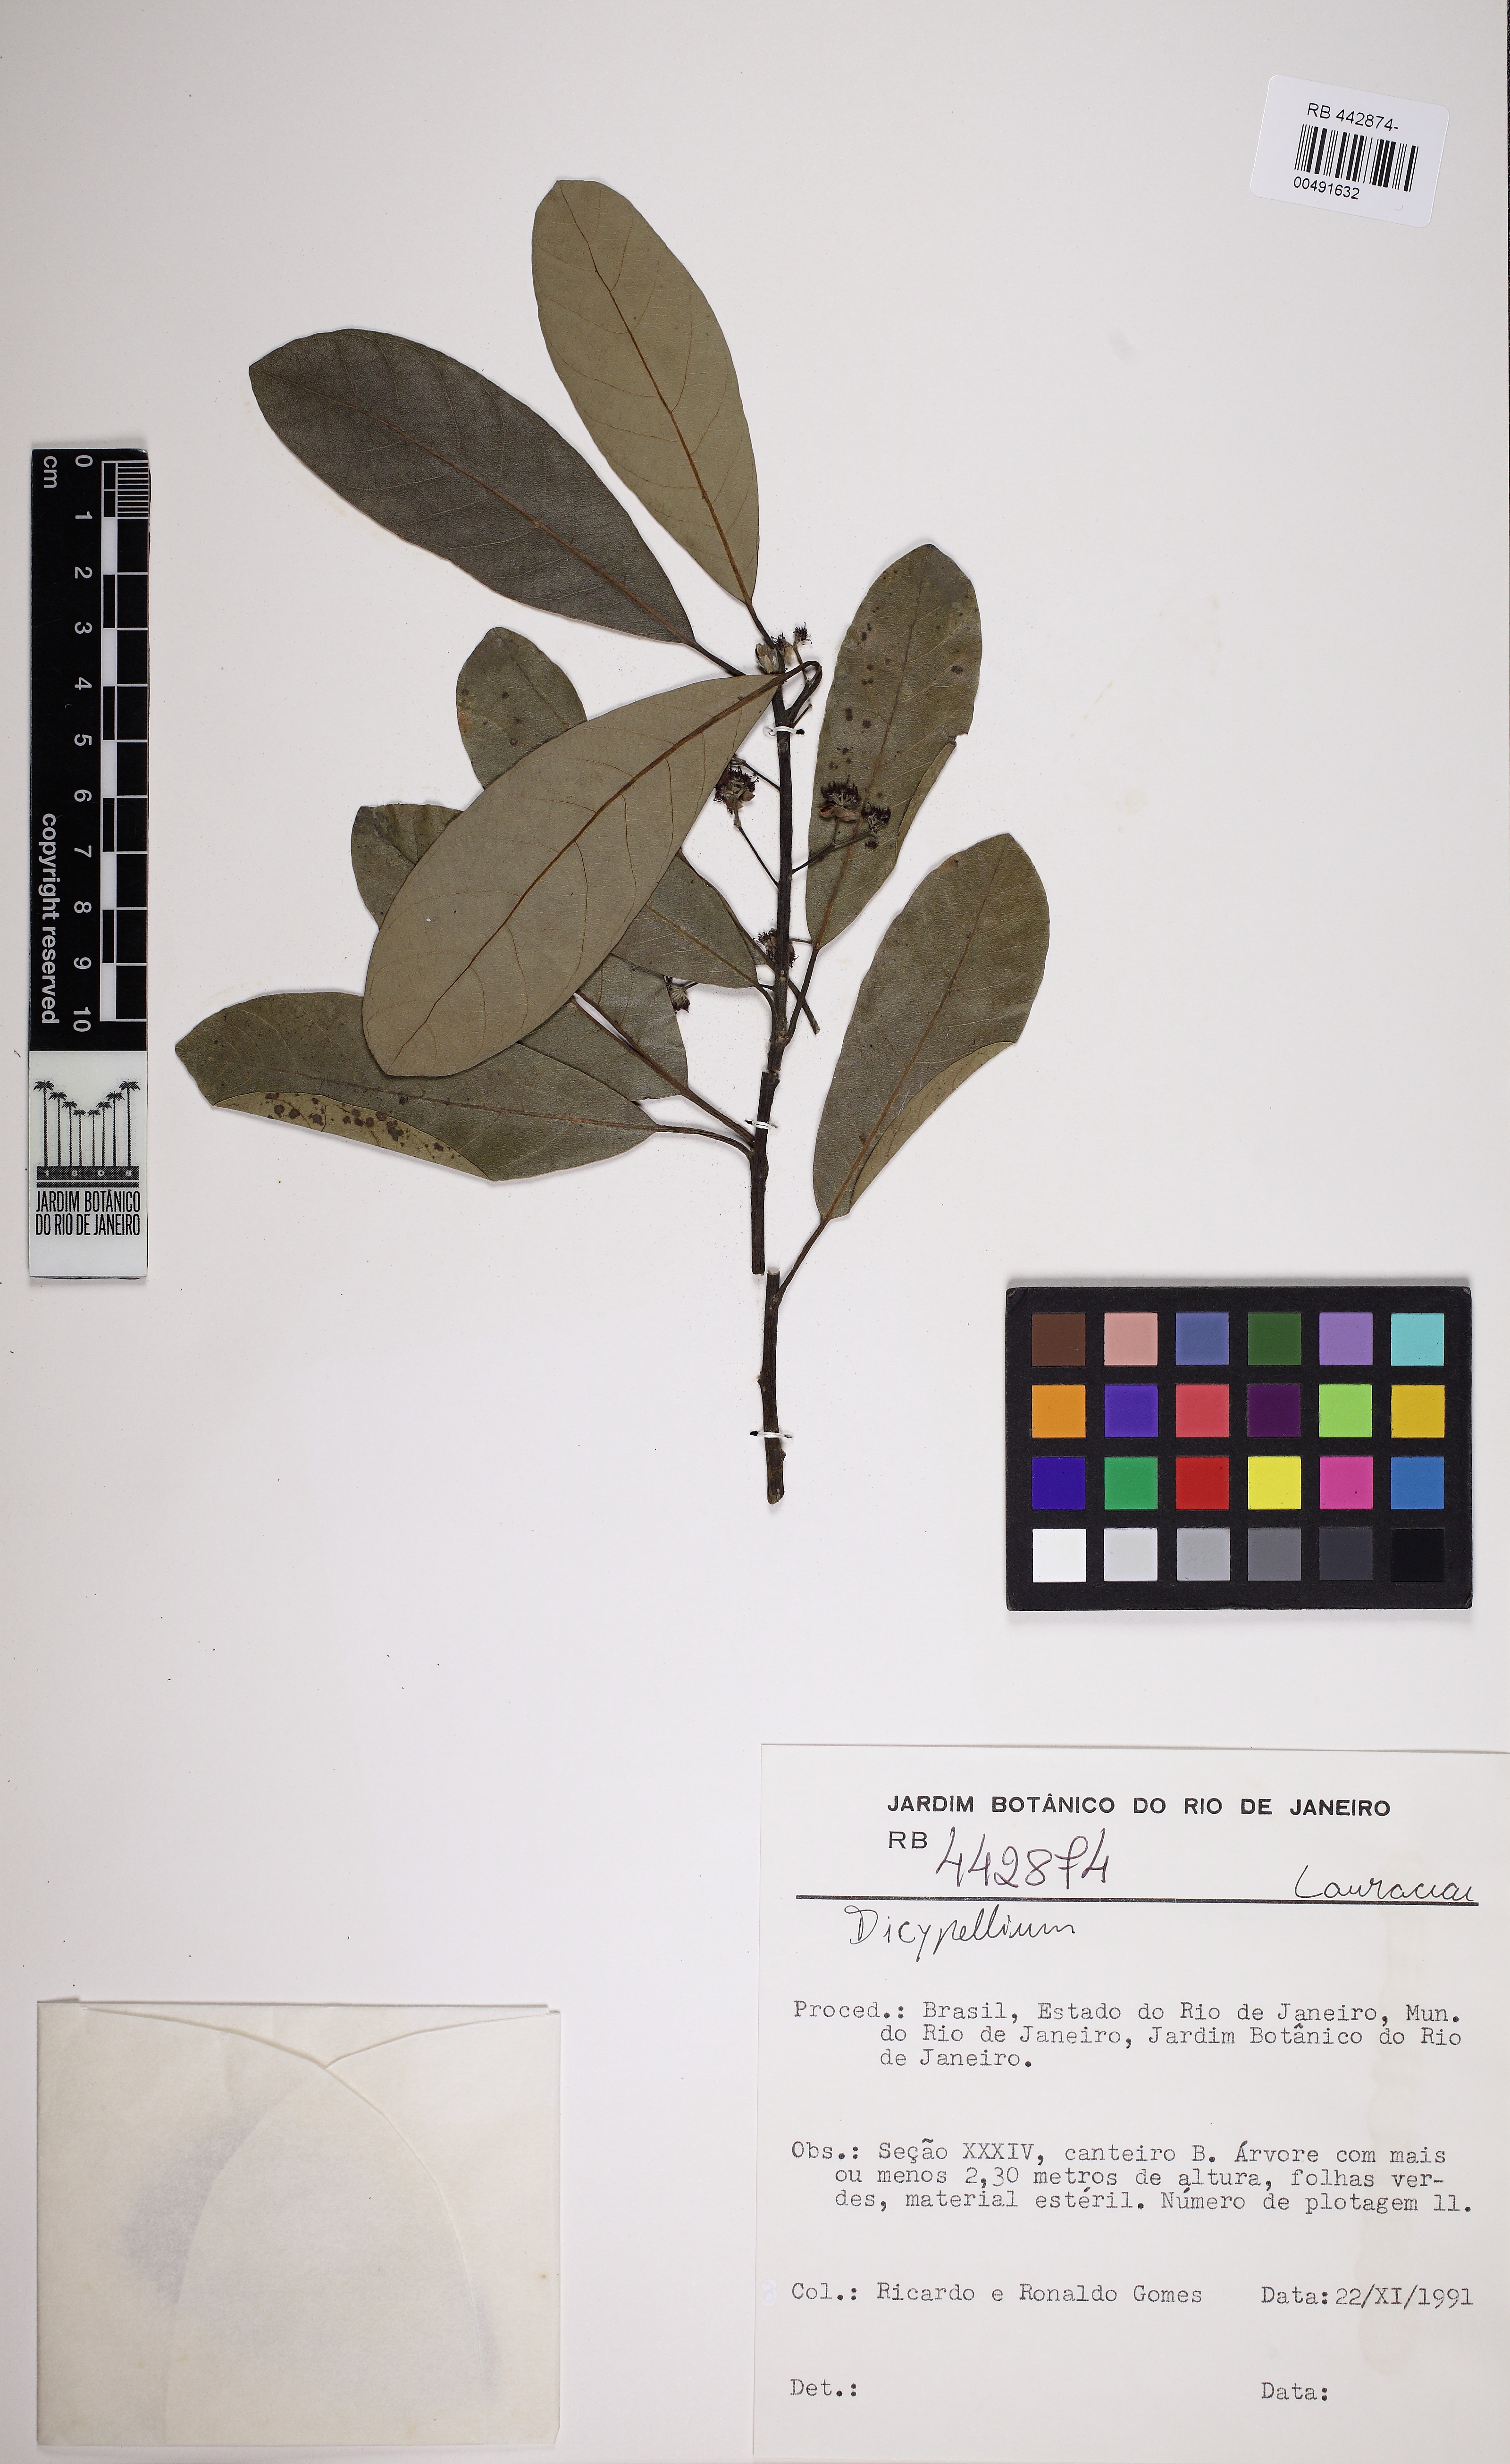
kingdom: Plantae
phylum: Tracheophyta
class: Magnoliopsida
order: Laurales
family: Lauraceae
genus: Dicypellium
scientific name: Dicypellium
